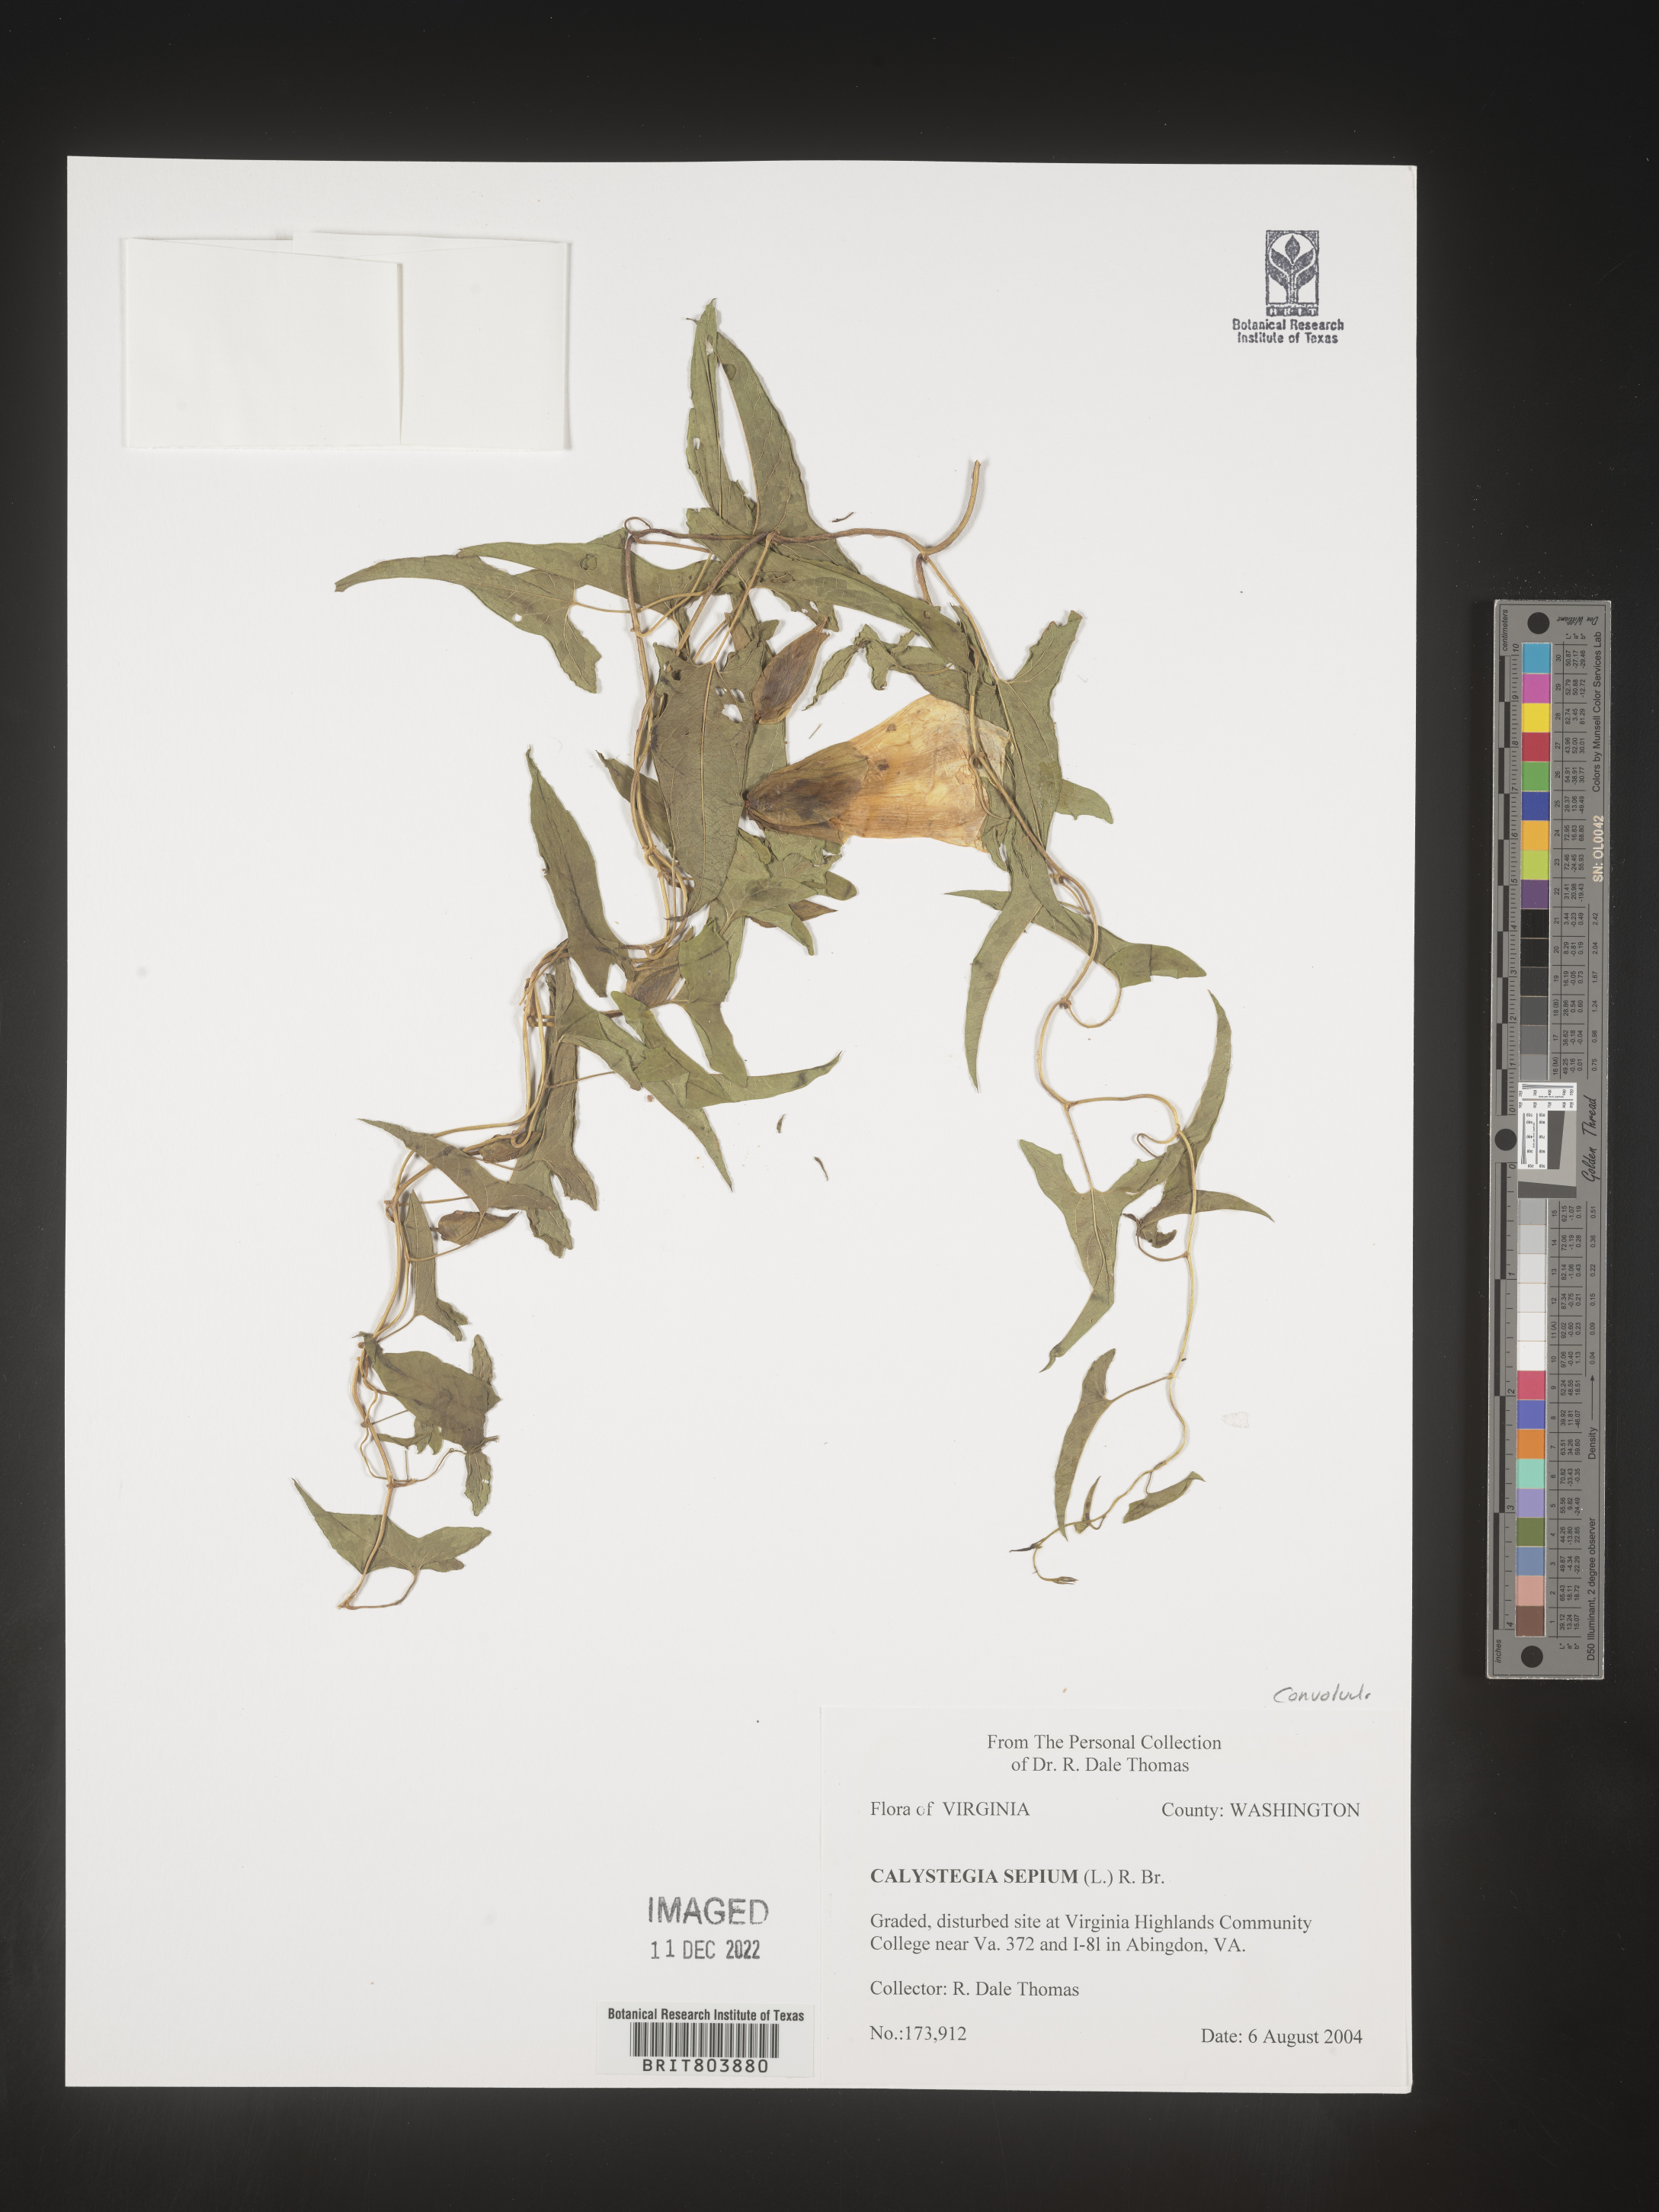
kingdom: Plantae
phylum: Tracheophyta
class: Magnoliopsida
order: Solanales
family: Convolvulaceae
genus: Calystegia
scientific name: Calystegia sepium
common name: Hedge bindweed
